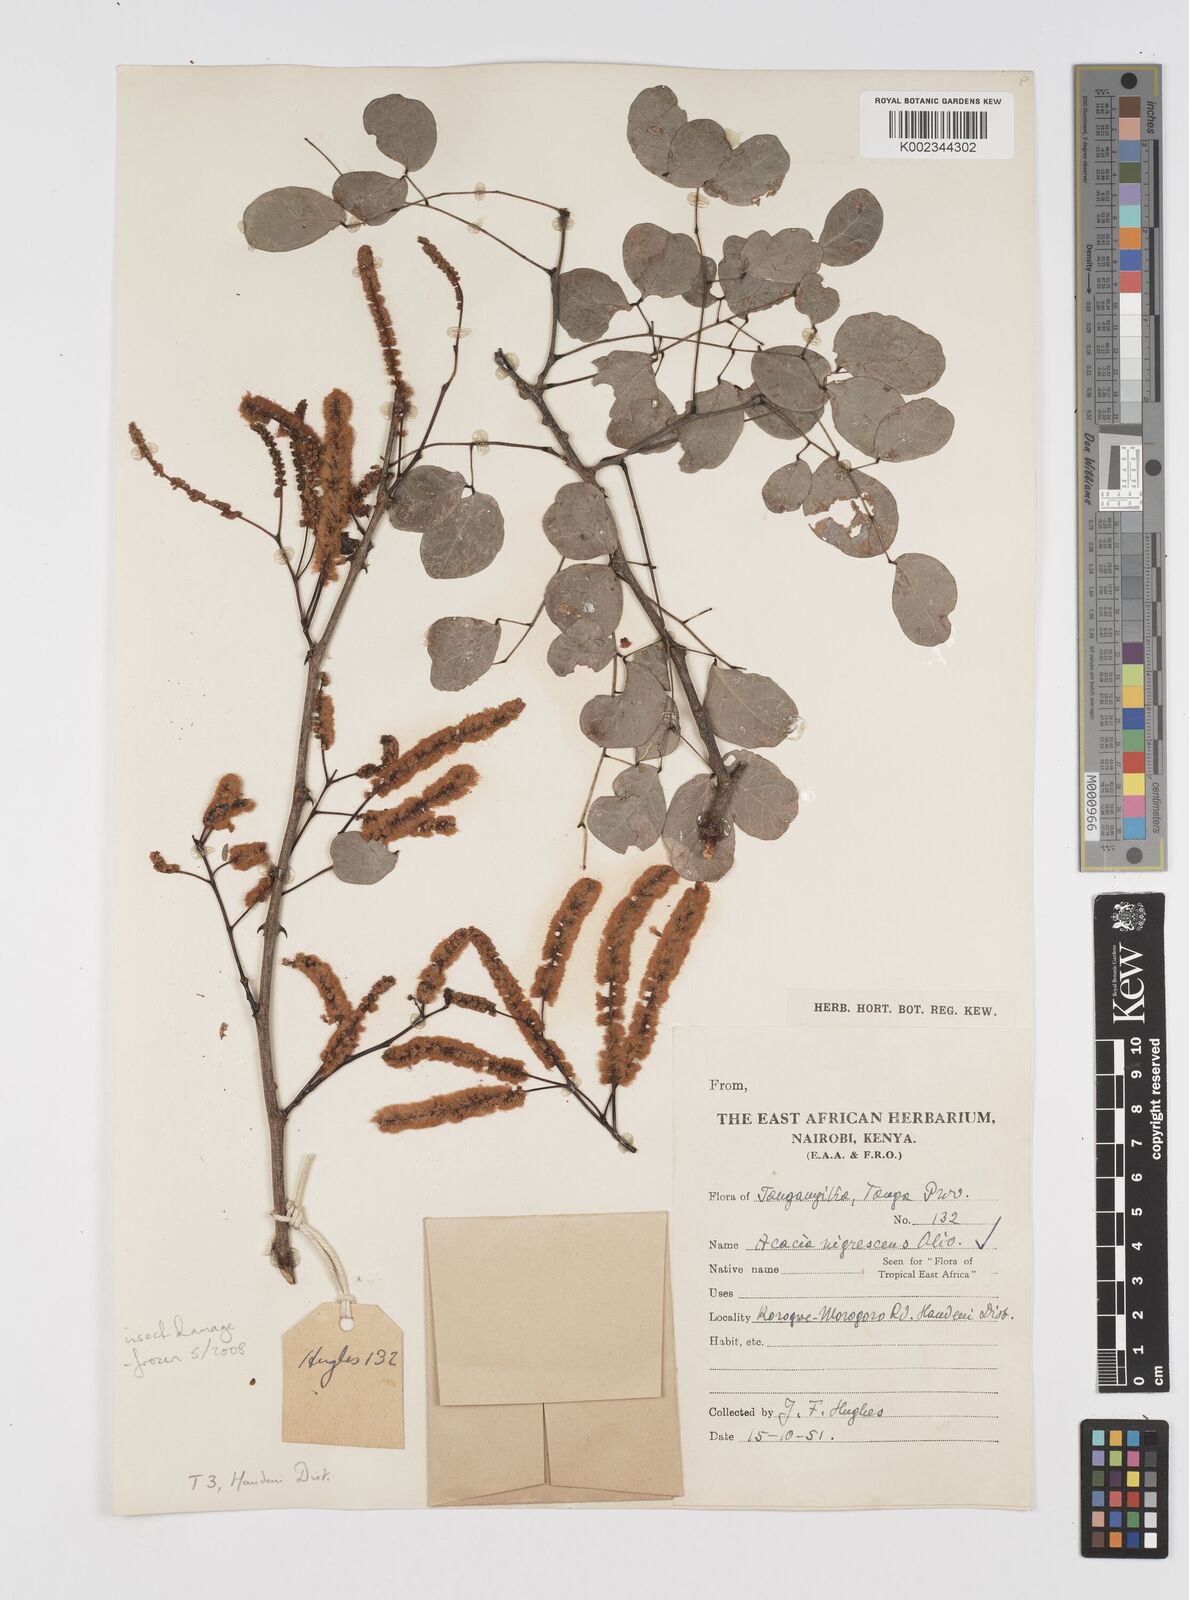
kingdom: Plantae
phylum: Tracheophyta
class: Magnoliopsida
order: Fabales
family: Fabaceae
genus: Senegalia
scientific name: Senegalia nigrescens
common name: Knobthorn
